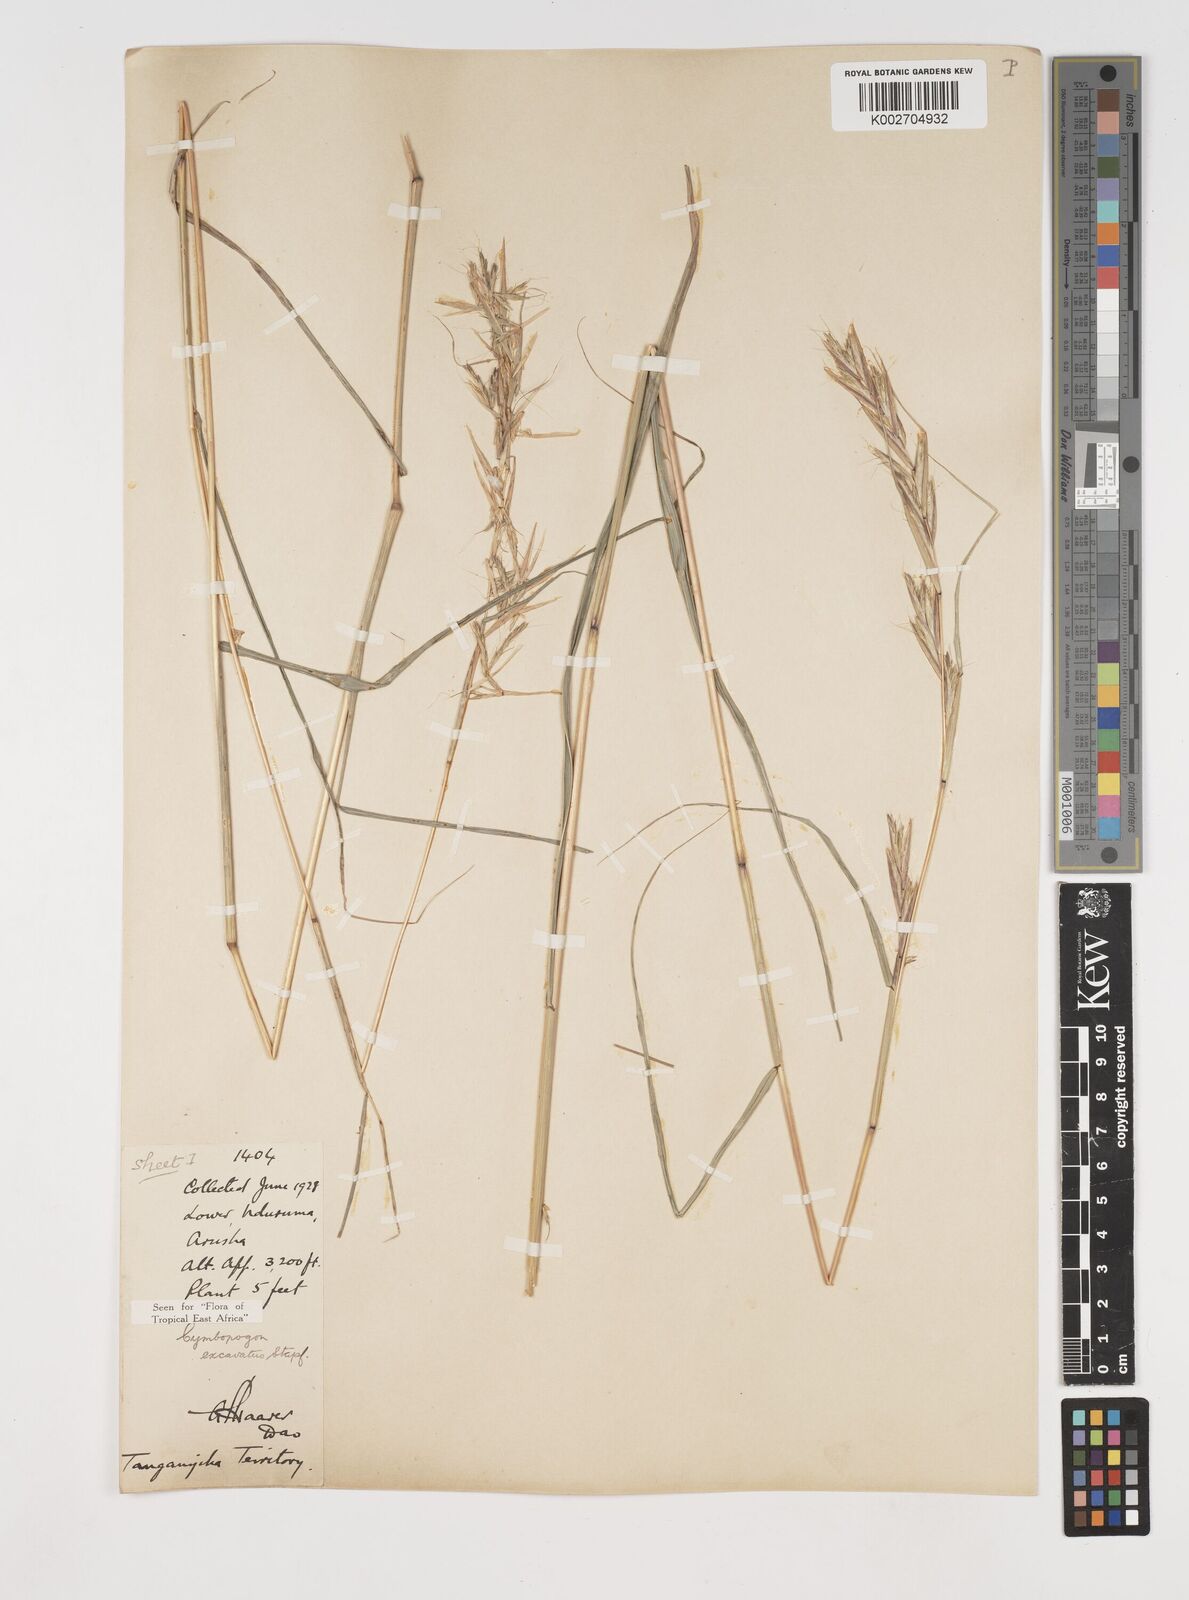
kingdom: Plantae
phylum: Tracheophyta
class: Liliopsida
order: Poales
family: Poaceae
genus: Cymbopogon
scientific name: Cymbopogon caesius
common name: Kachi grass
